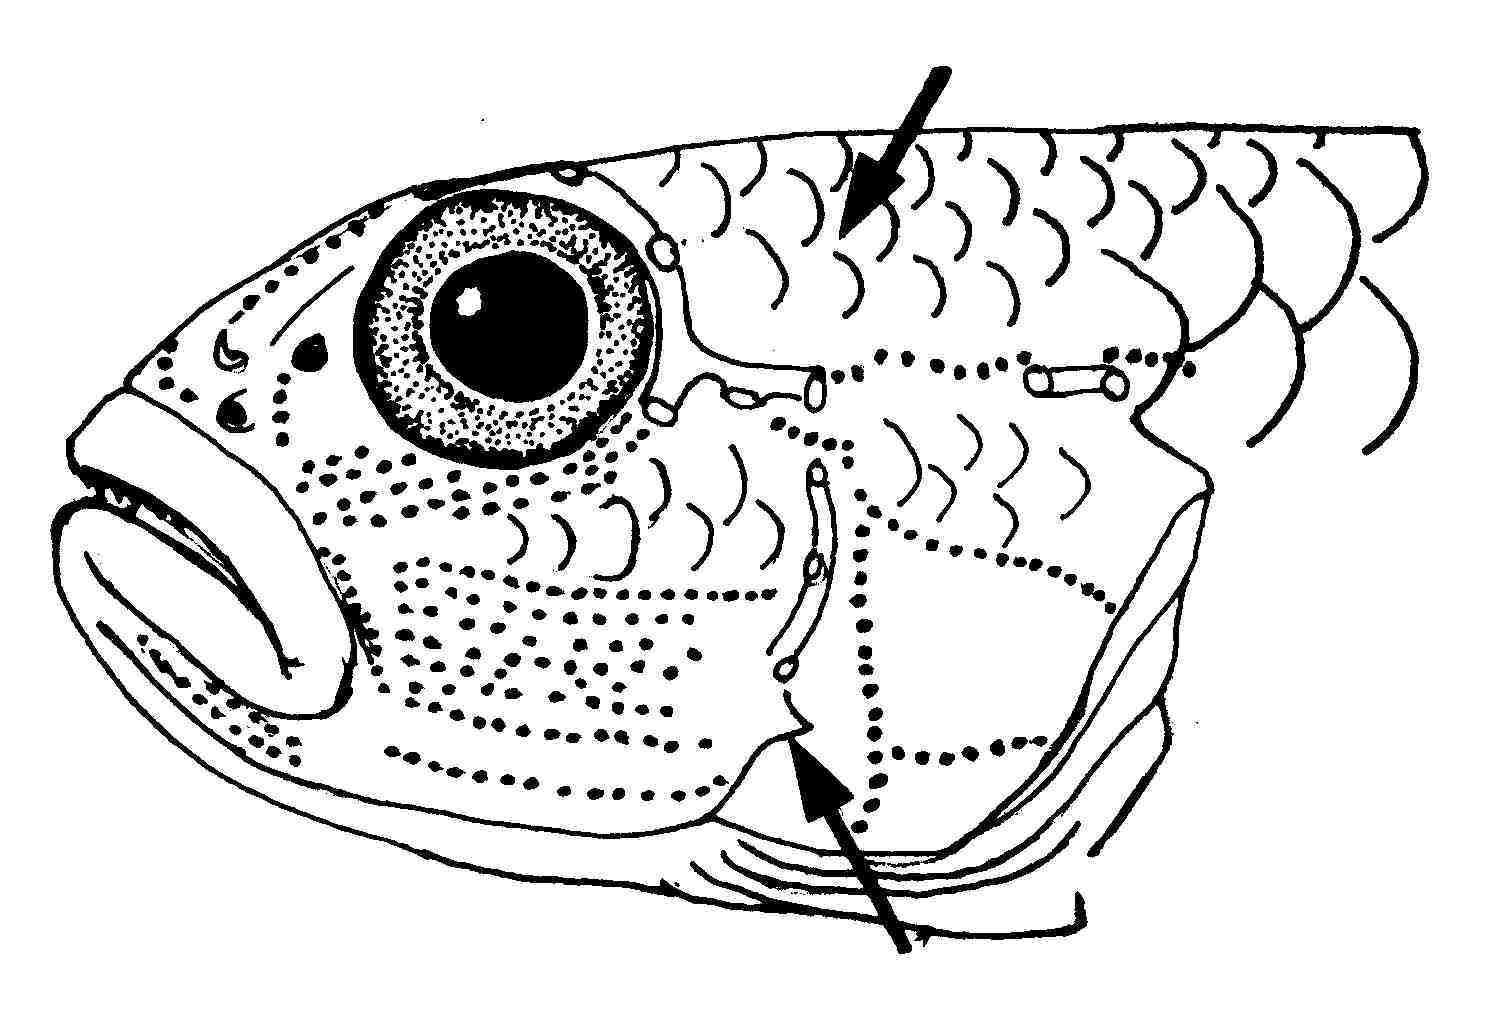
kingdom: Animalia
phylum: Chordata
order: Perciformes
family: Gobiidae
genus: Oplopomus
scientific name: Oplopomus caninoides
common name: Robust goby
